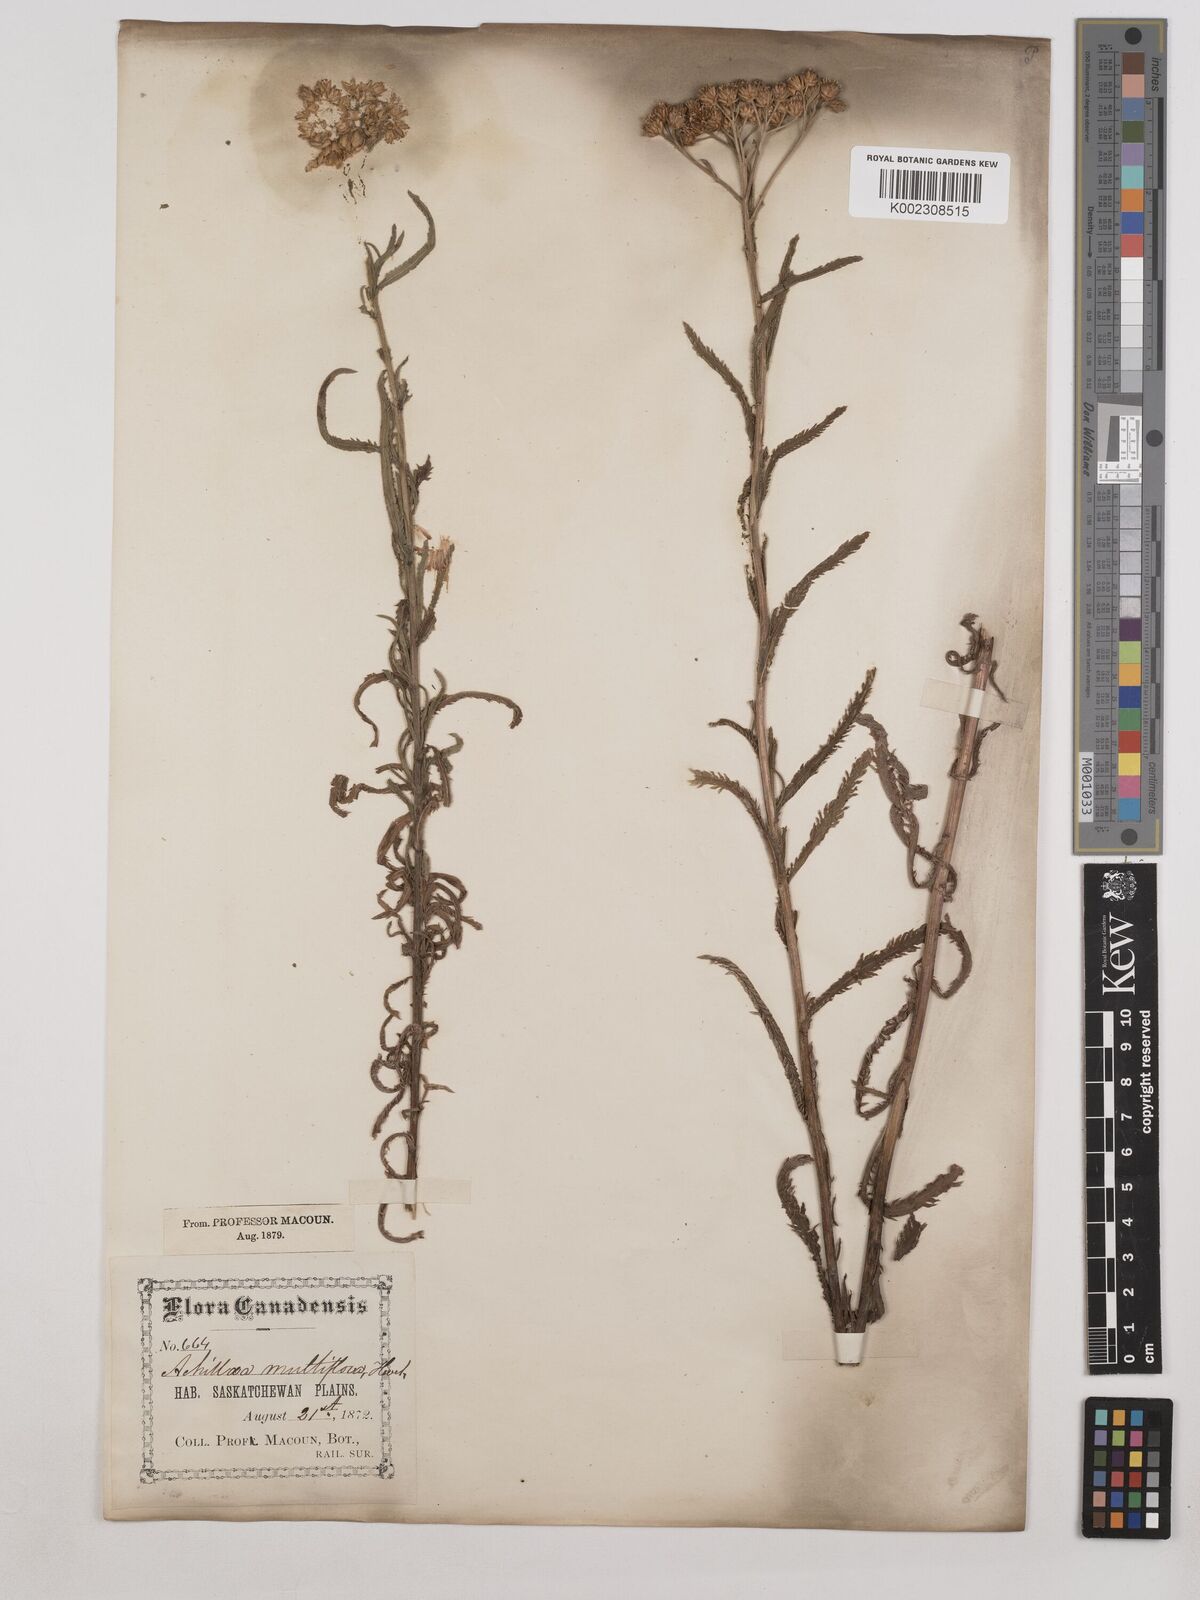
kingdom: Plantae
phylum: Tracheophyta
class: Magnoliopsida
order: Asterales
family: Asteraceae
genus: Achillea
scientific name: Achillea alpina
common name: Siberian yarrow
